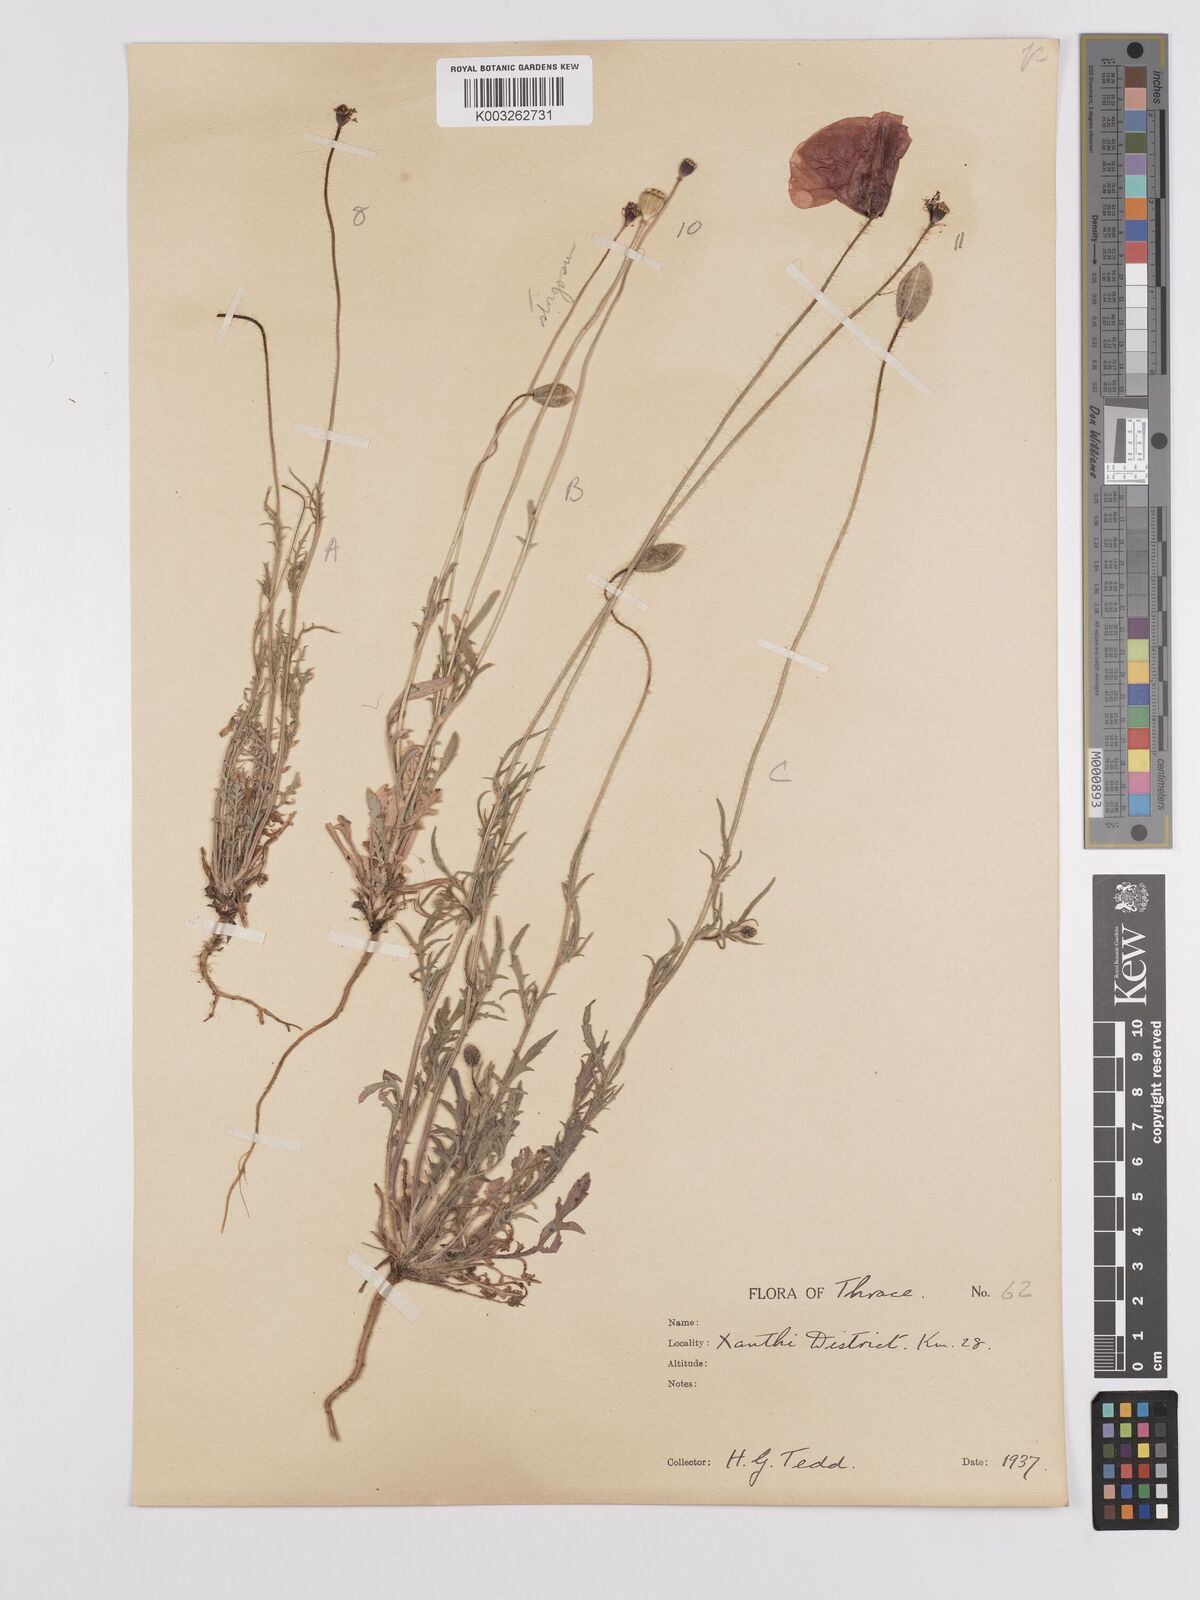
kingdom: Plantae
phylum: Tracheophyta
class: Magnoliopsida
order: Ranunculales
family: Papaveraceae
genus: Papaver
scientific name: Papaver
